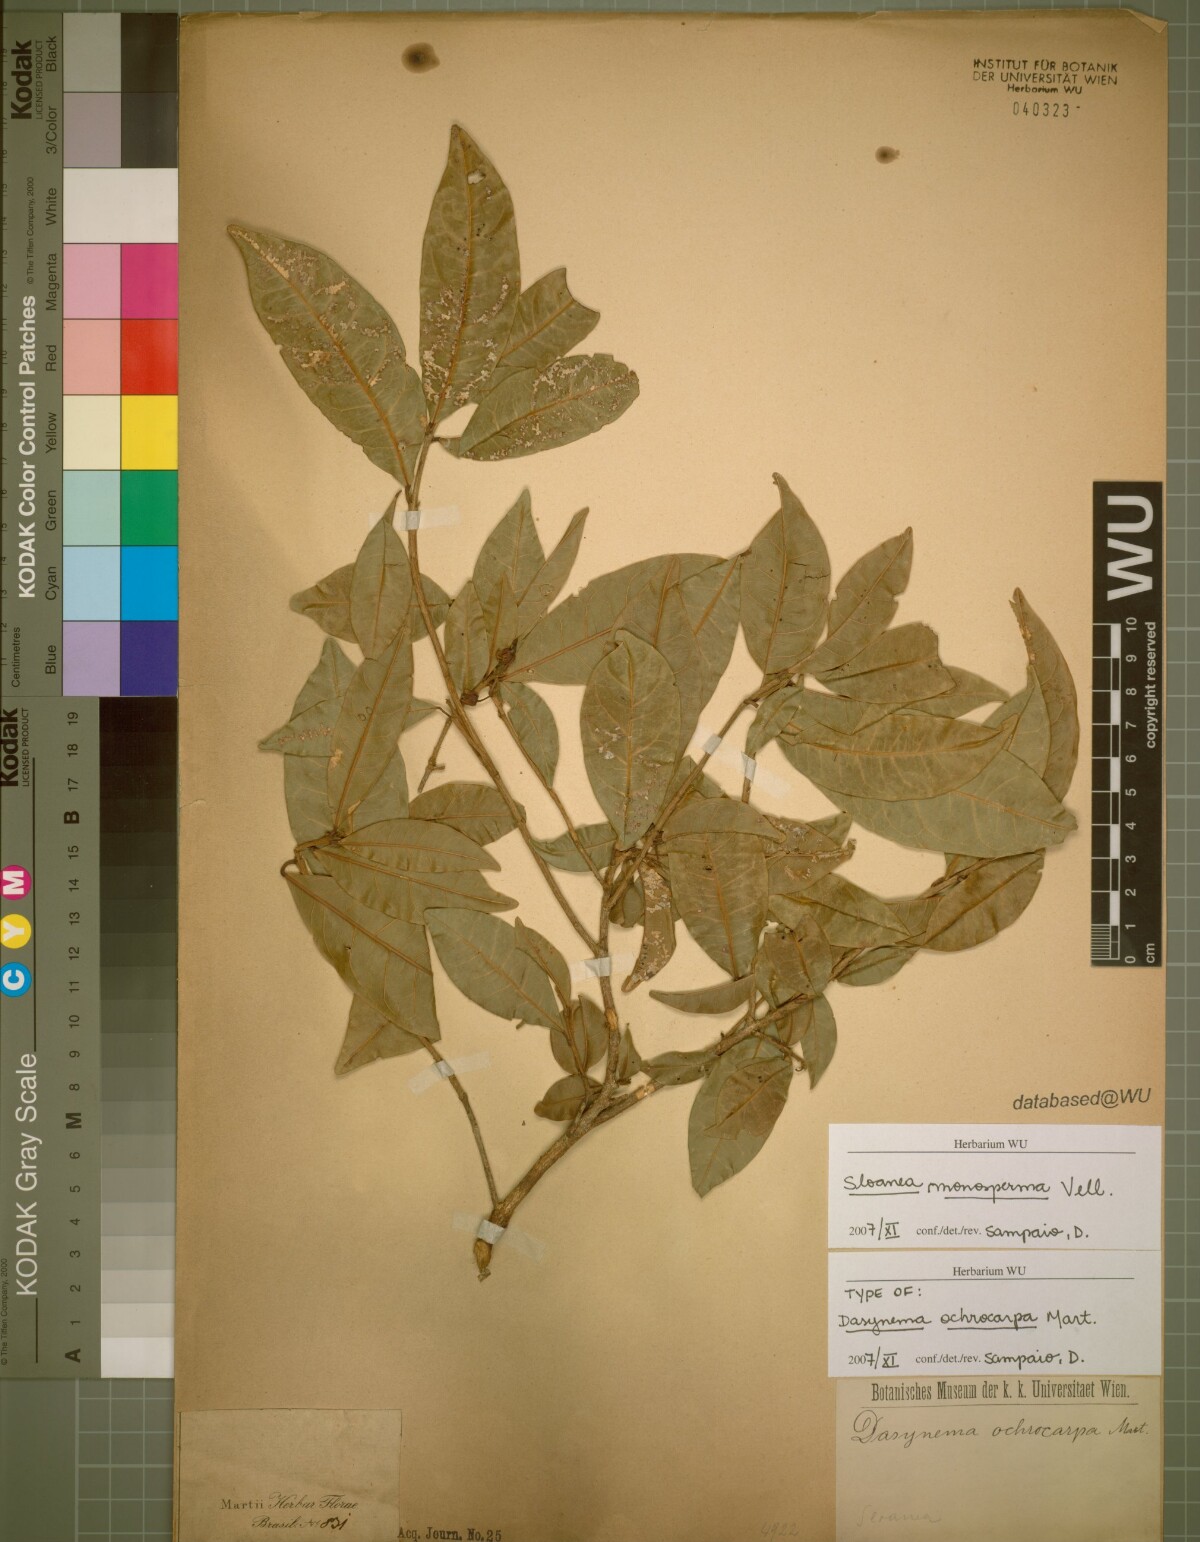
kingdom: Plantae
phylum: Tracheophyta
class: Magnoliopsida
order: Oxalidales
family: Elaeocarpaceae
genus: Sloanea
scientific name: Sloanea hirsuta
